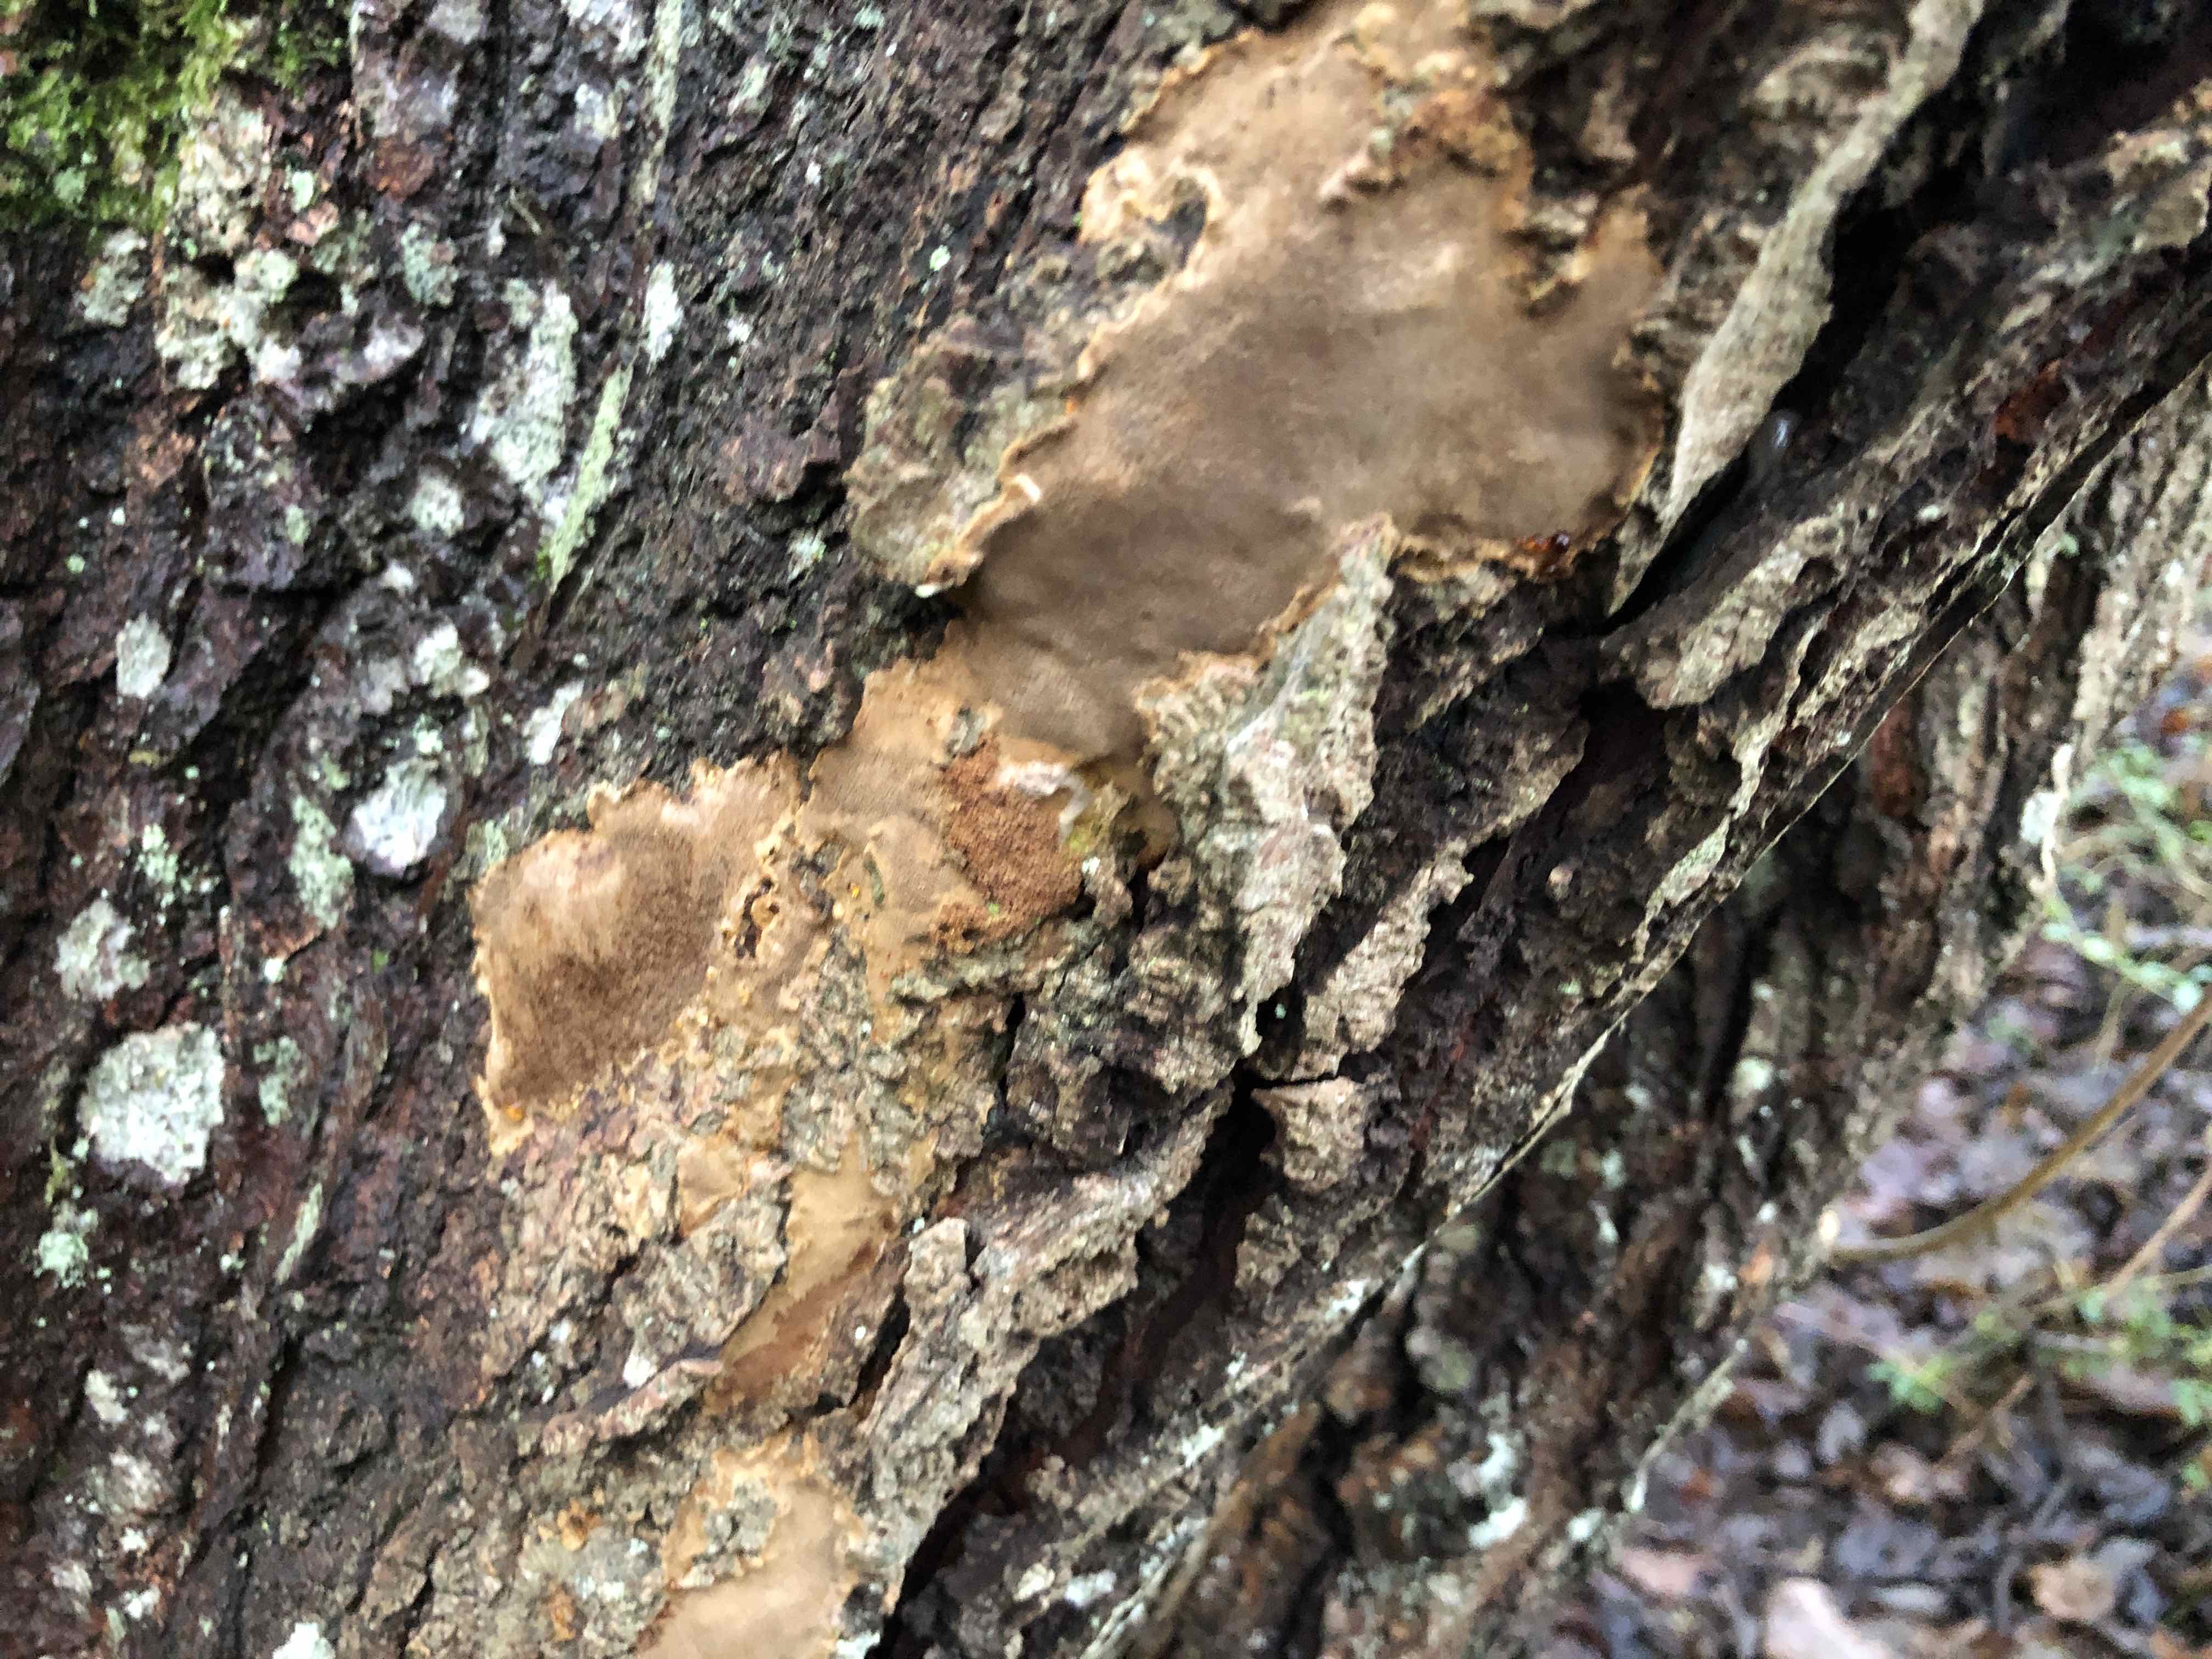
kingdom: Fungi
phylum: Basidiomycota
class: Agaricomycetes
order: Hymenochaetales
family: Hymenochaetaceae
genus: Phellinopsis
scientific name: Phellinopsis conchata
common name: pile-ildporesvamp
